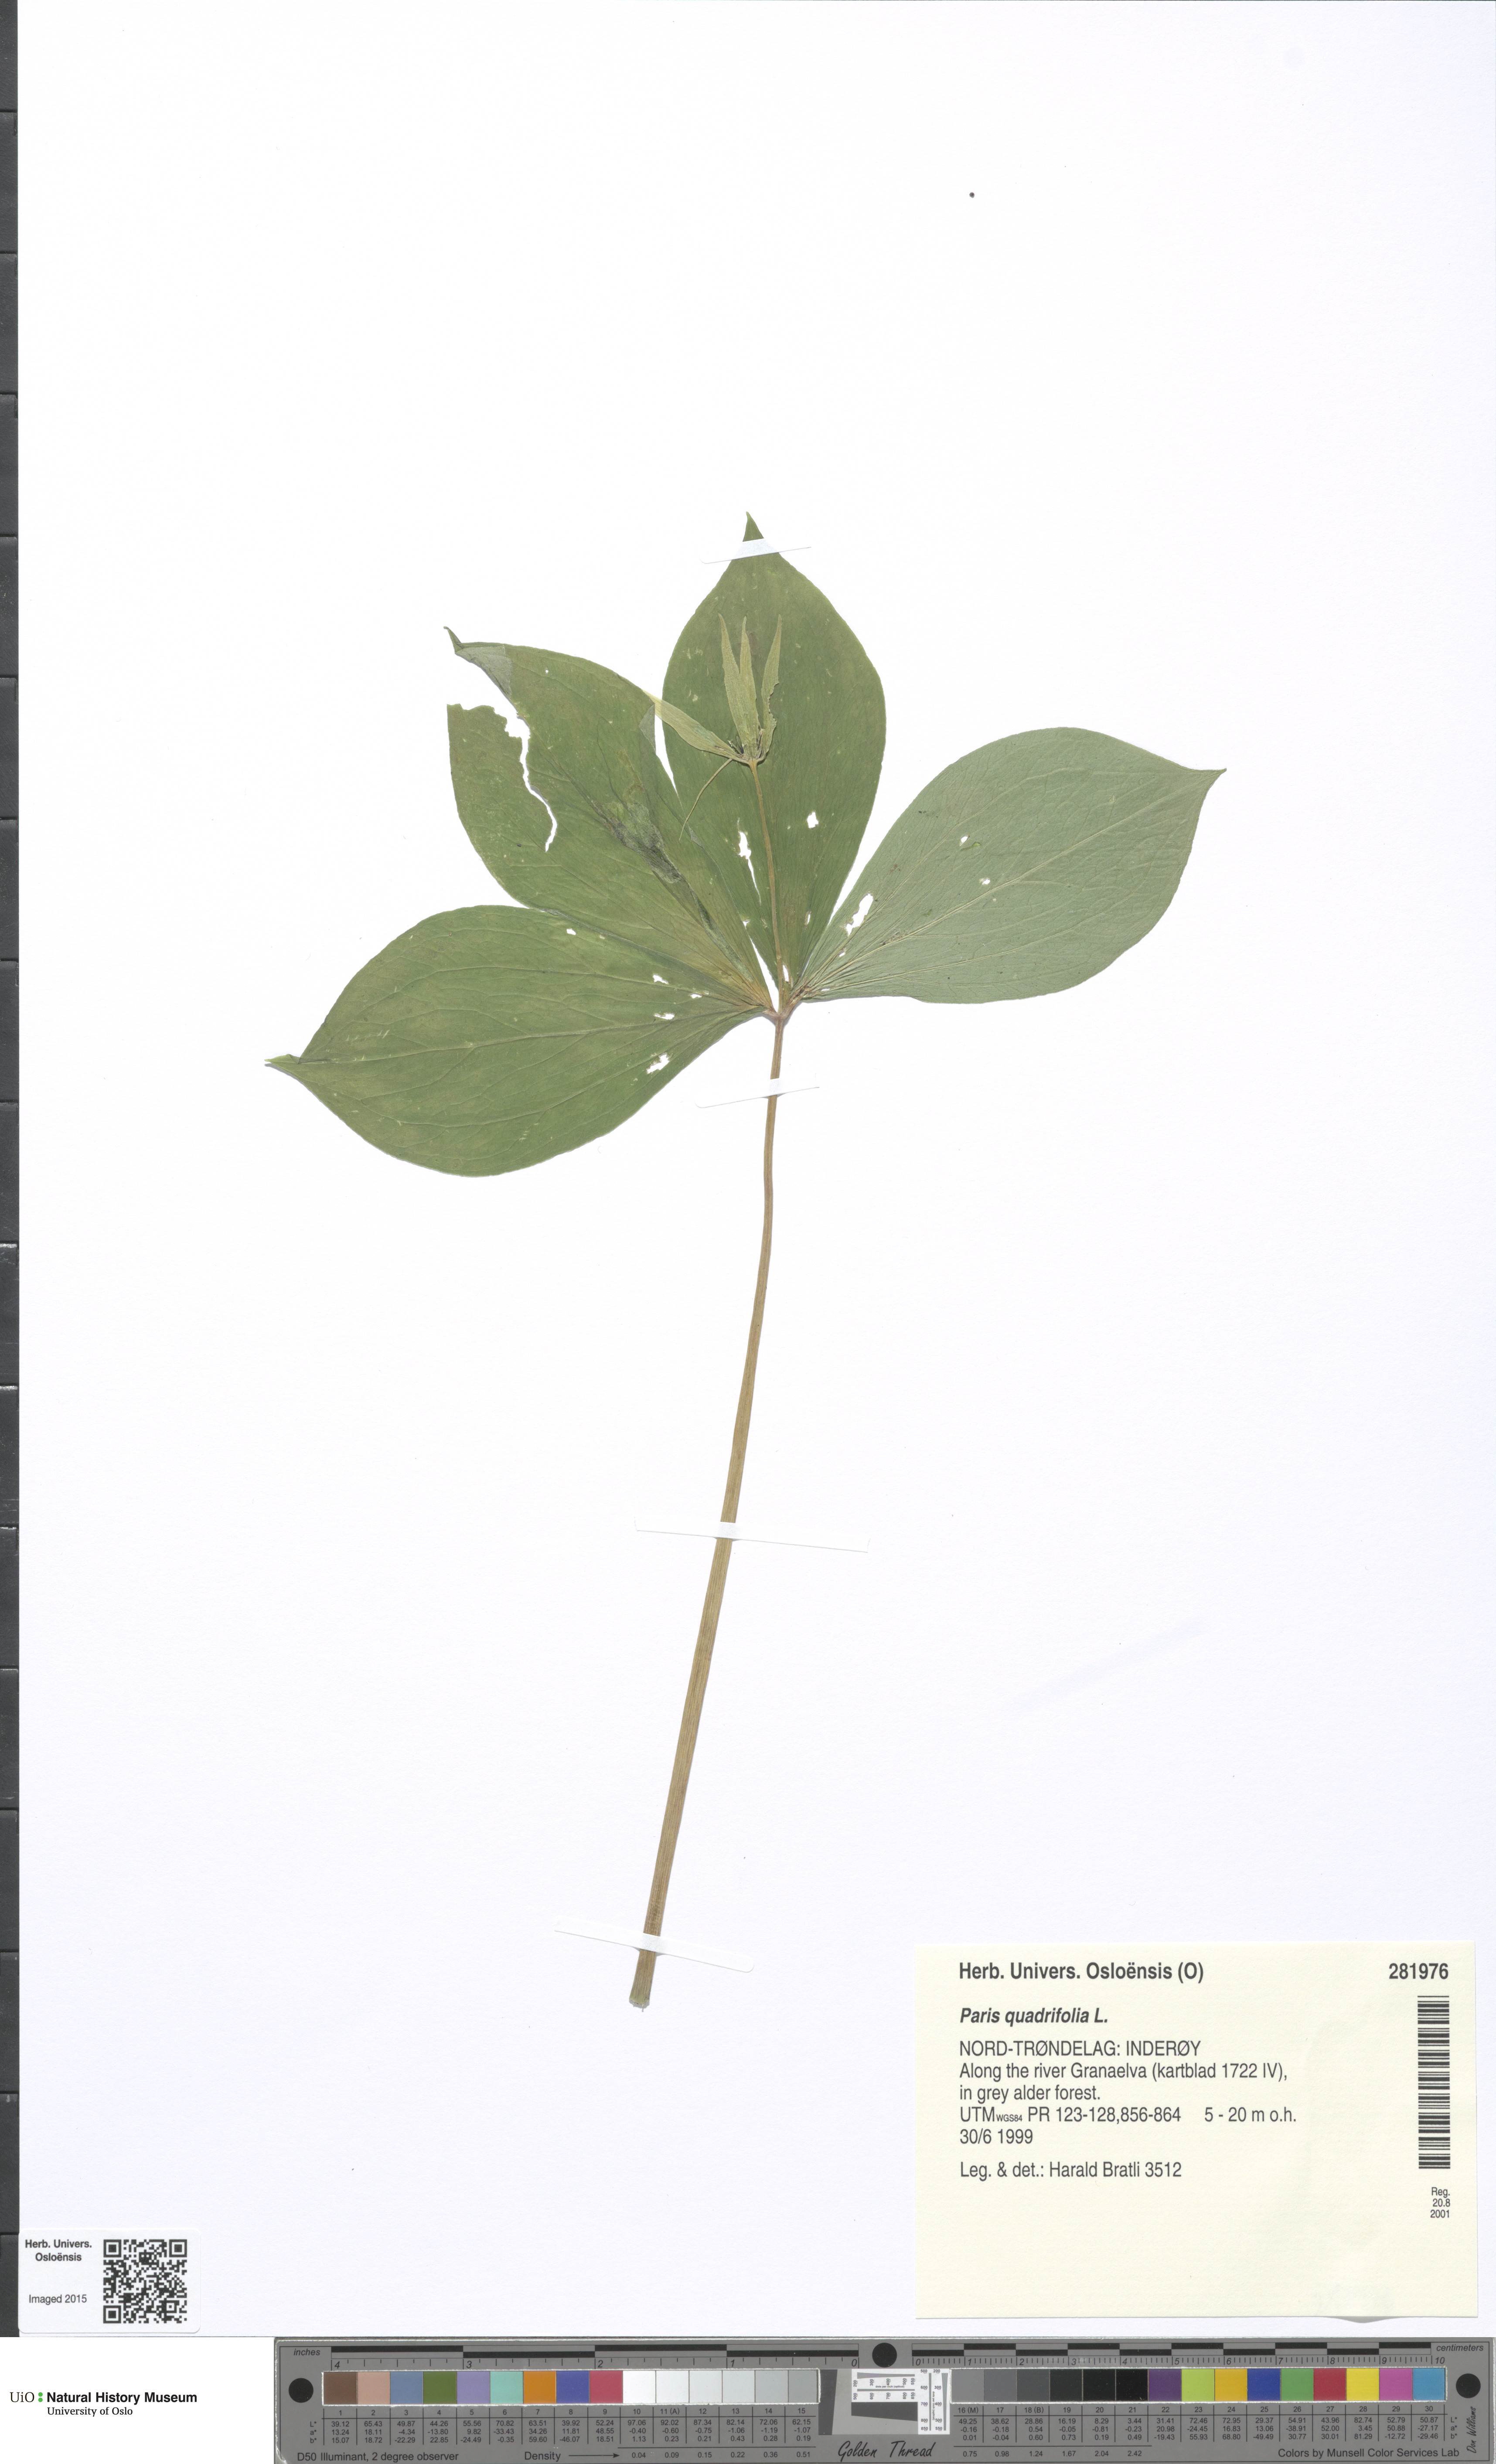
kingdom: Plantae
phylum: Tracheophyta
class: Liliopsida
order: Liliales
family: Melanthiaceae
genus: Paris
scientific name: Paris quadrifolia
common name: Herb-paris
